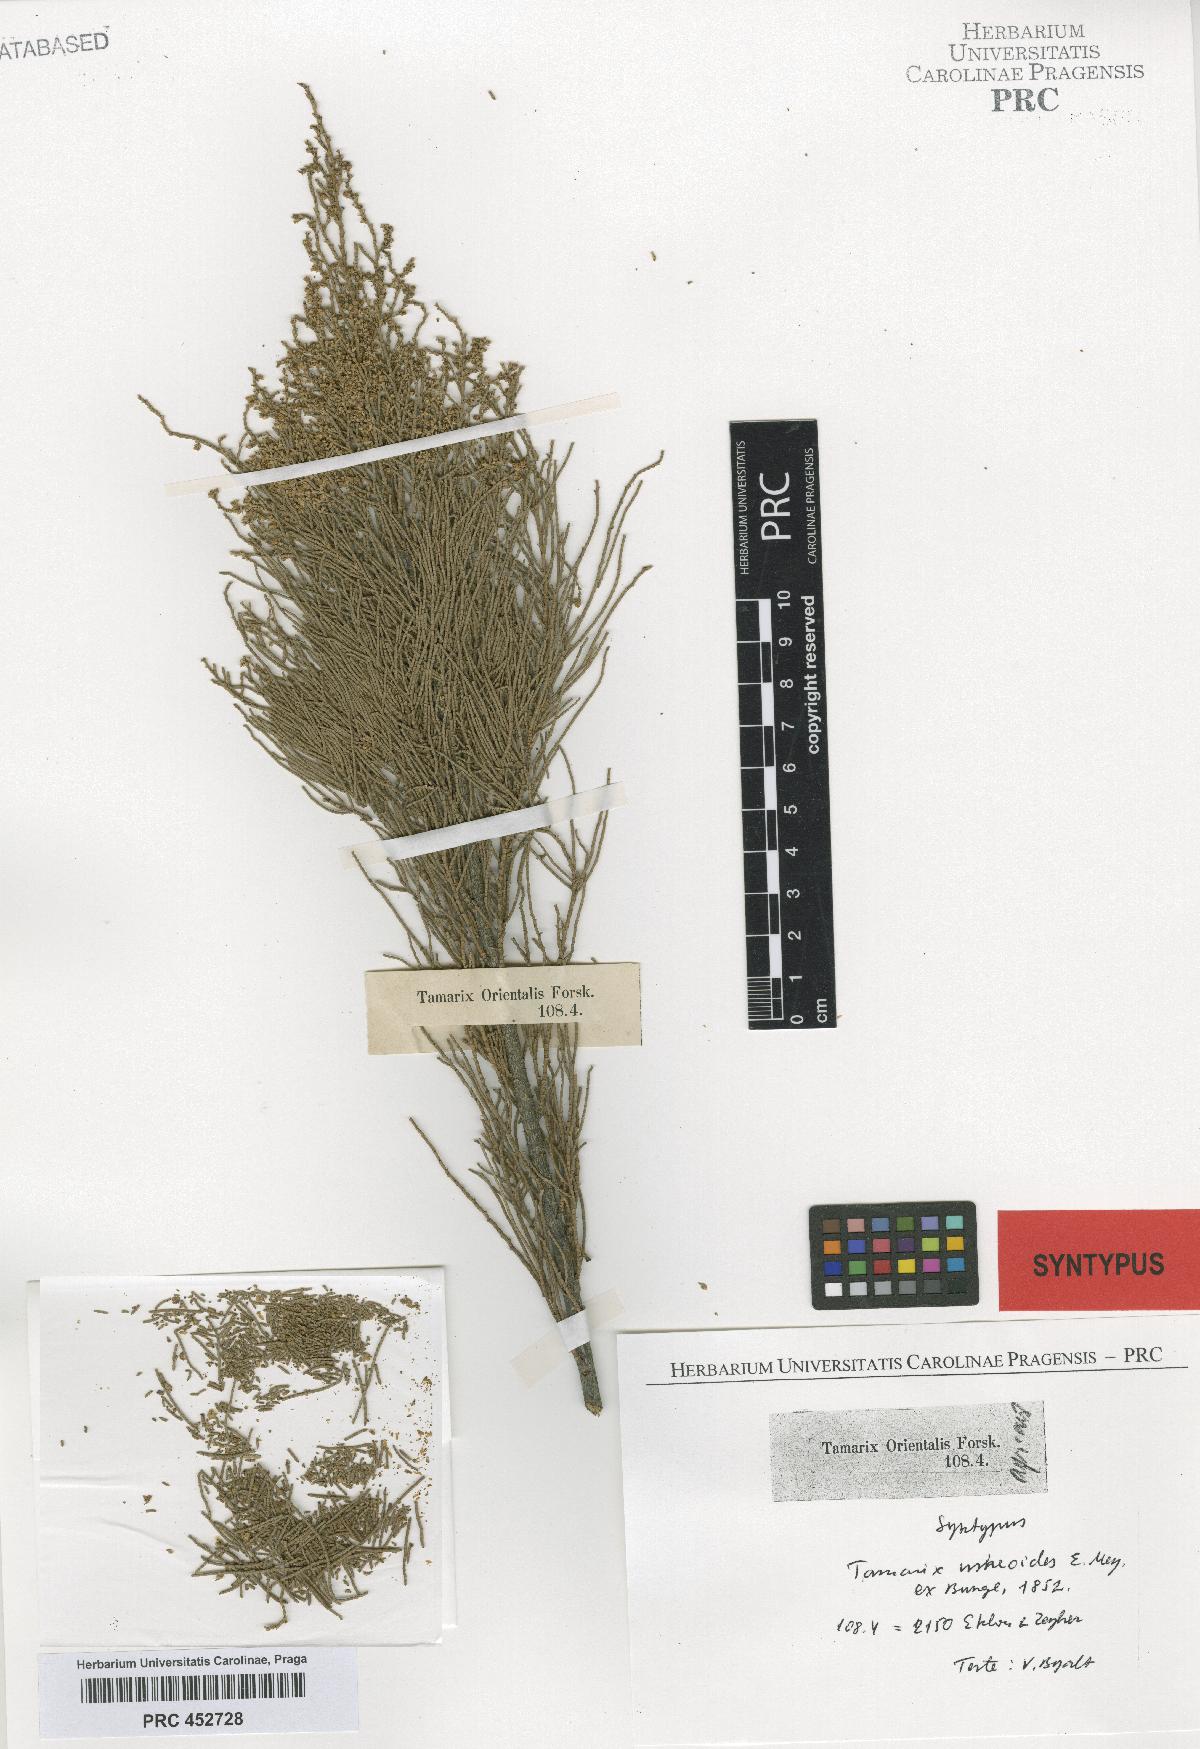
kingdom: Plantae
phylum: Tracheophyta
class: Magnoliopsida
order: Caryophyllales
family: Tamaricaceae
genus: Tamarix
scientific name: Tamarix usneoides
